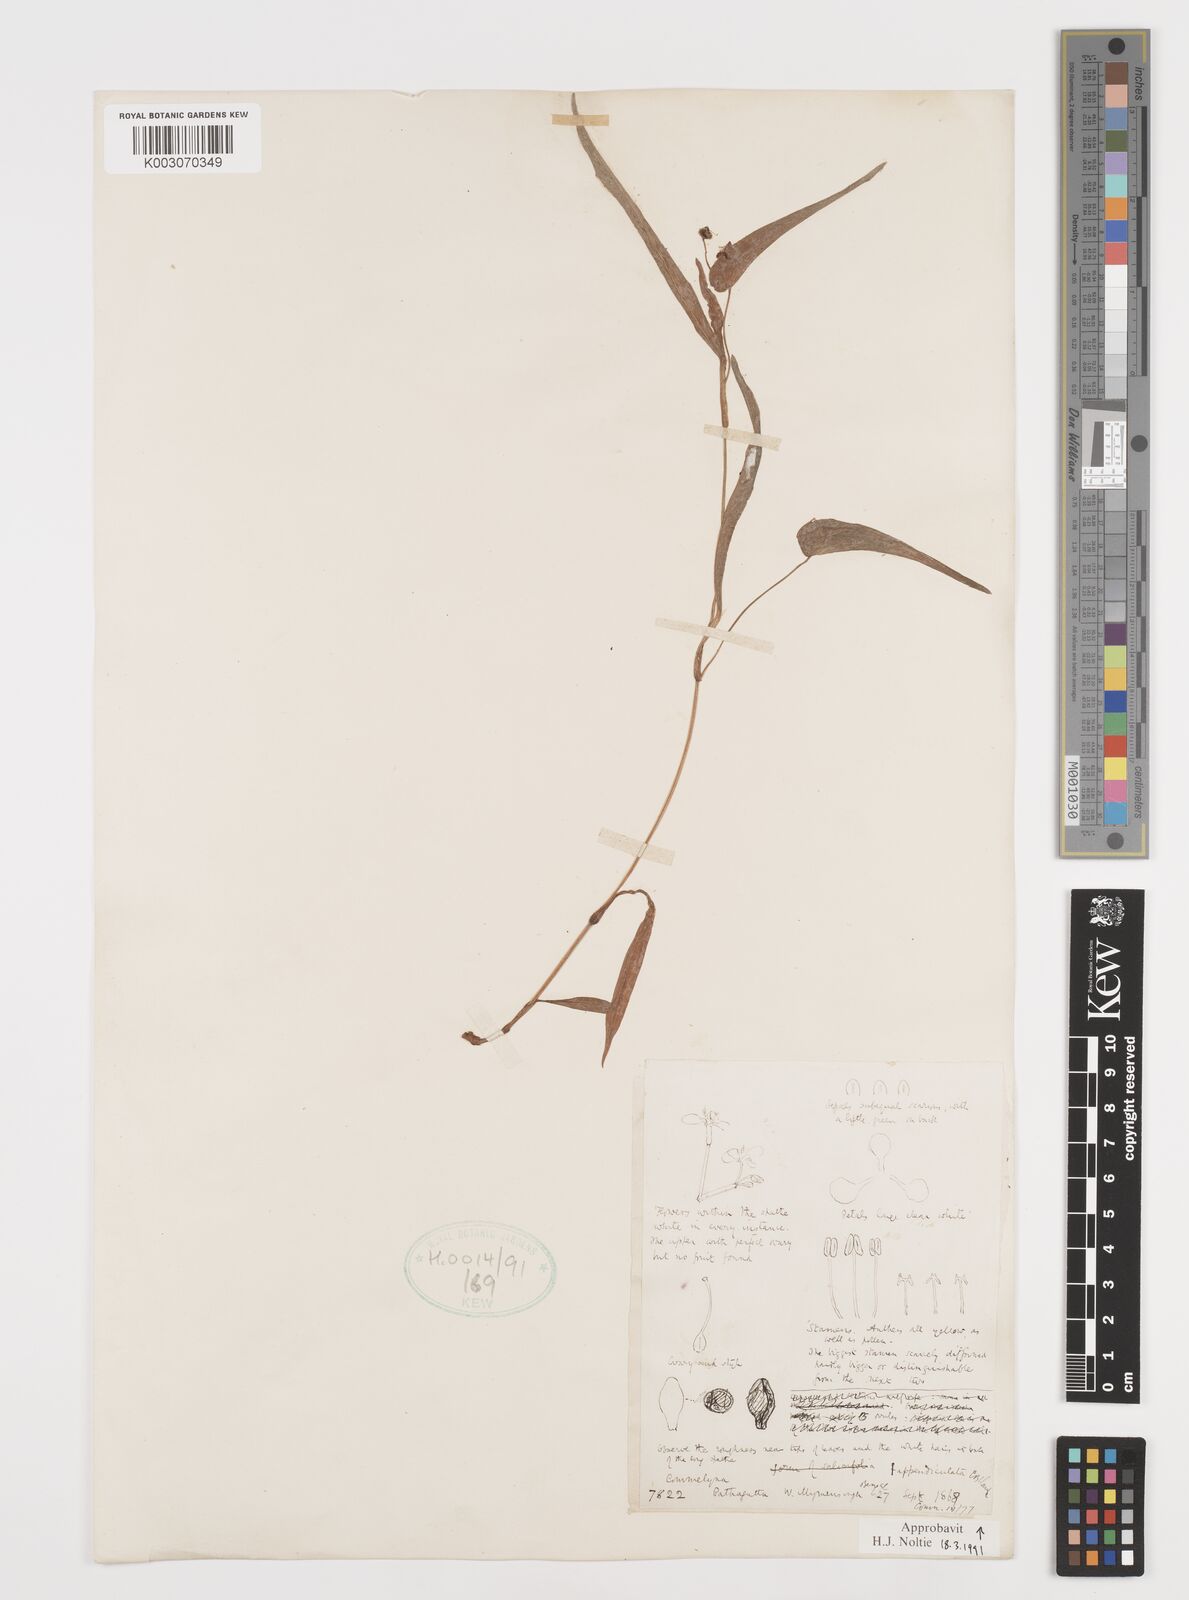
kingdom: Plantae
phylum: Tracheophyta
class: Liliopsida
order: Commelinales
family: Commelinaceae
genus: Commelina
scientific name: Commelina appendiculata
